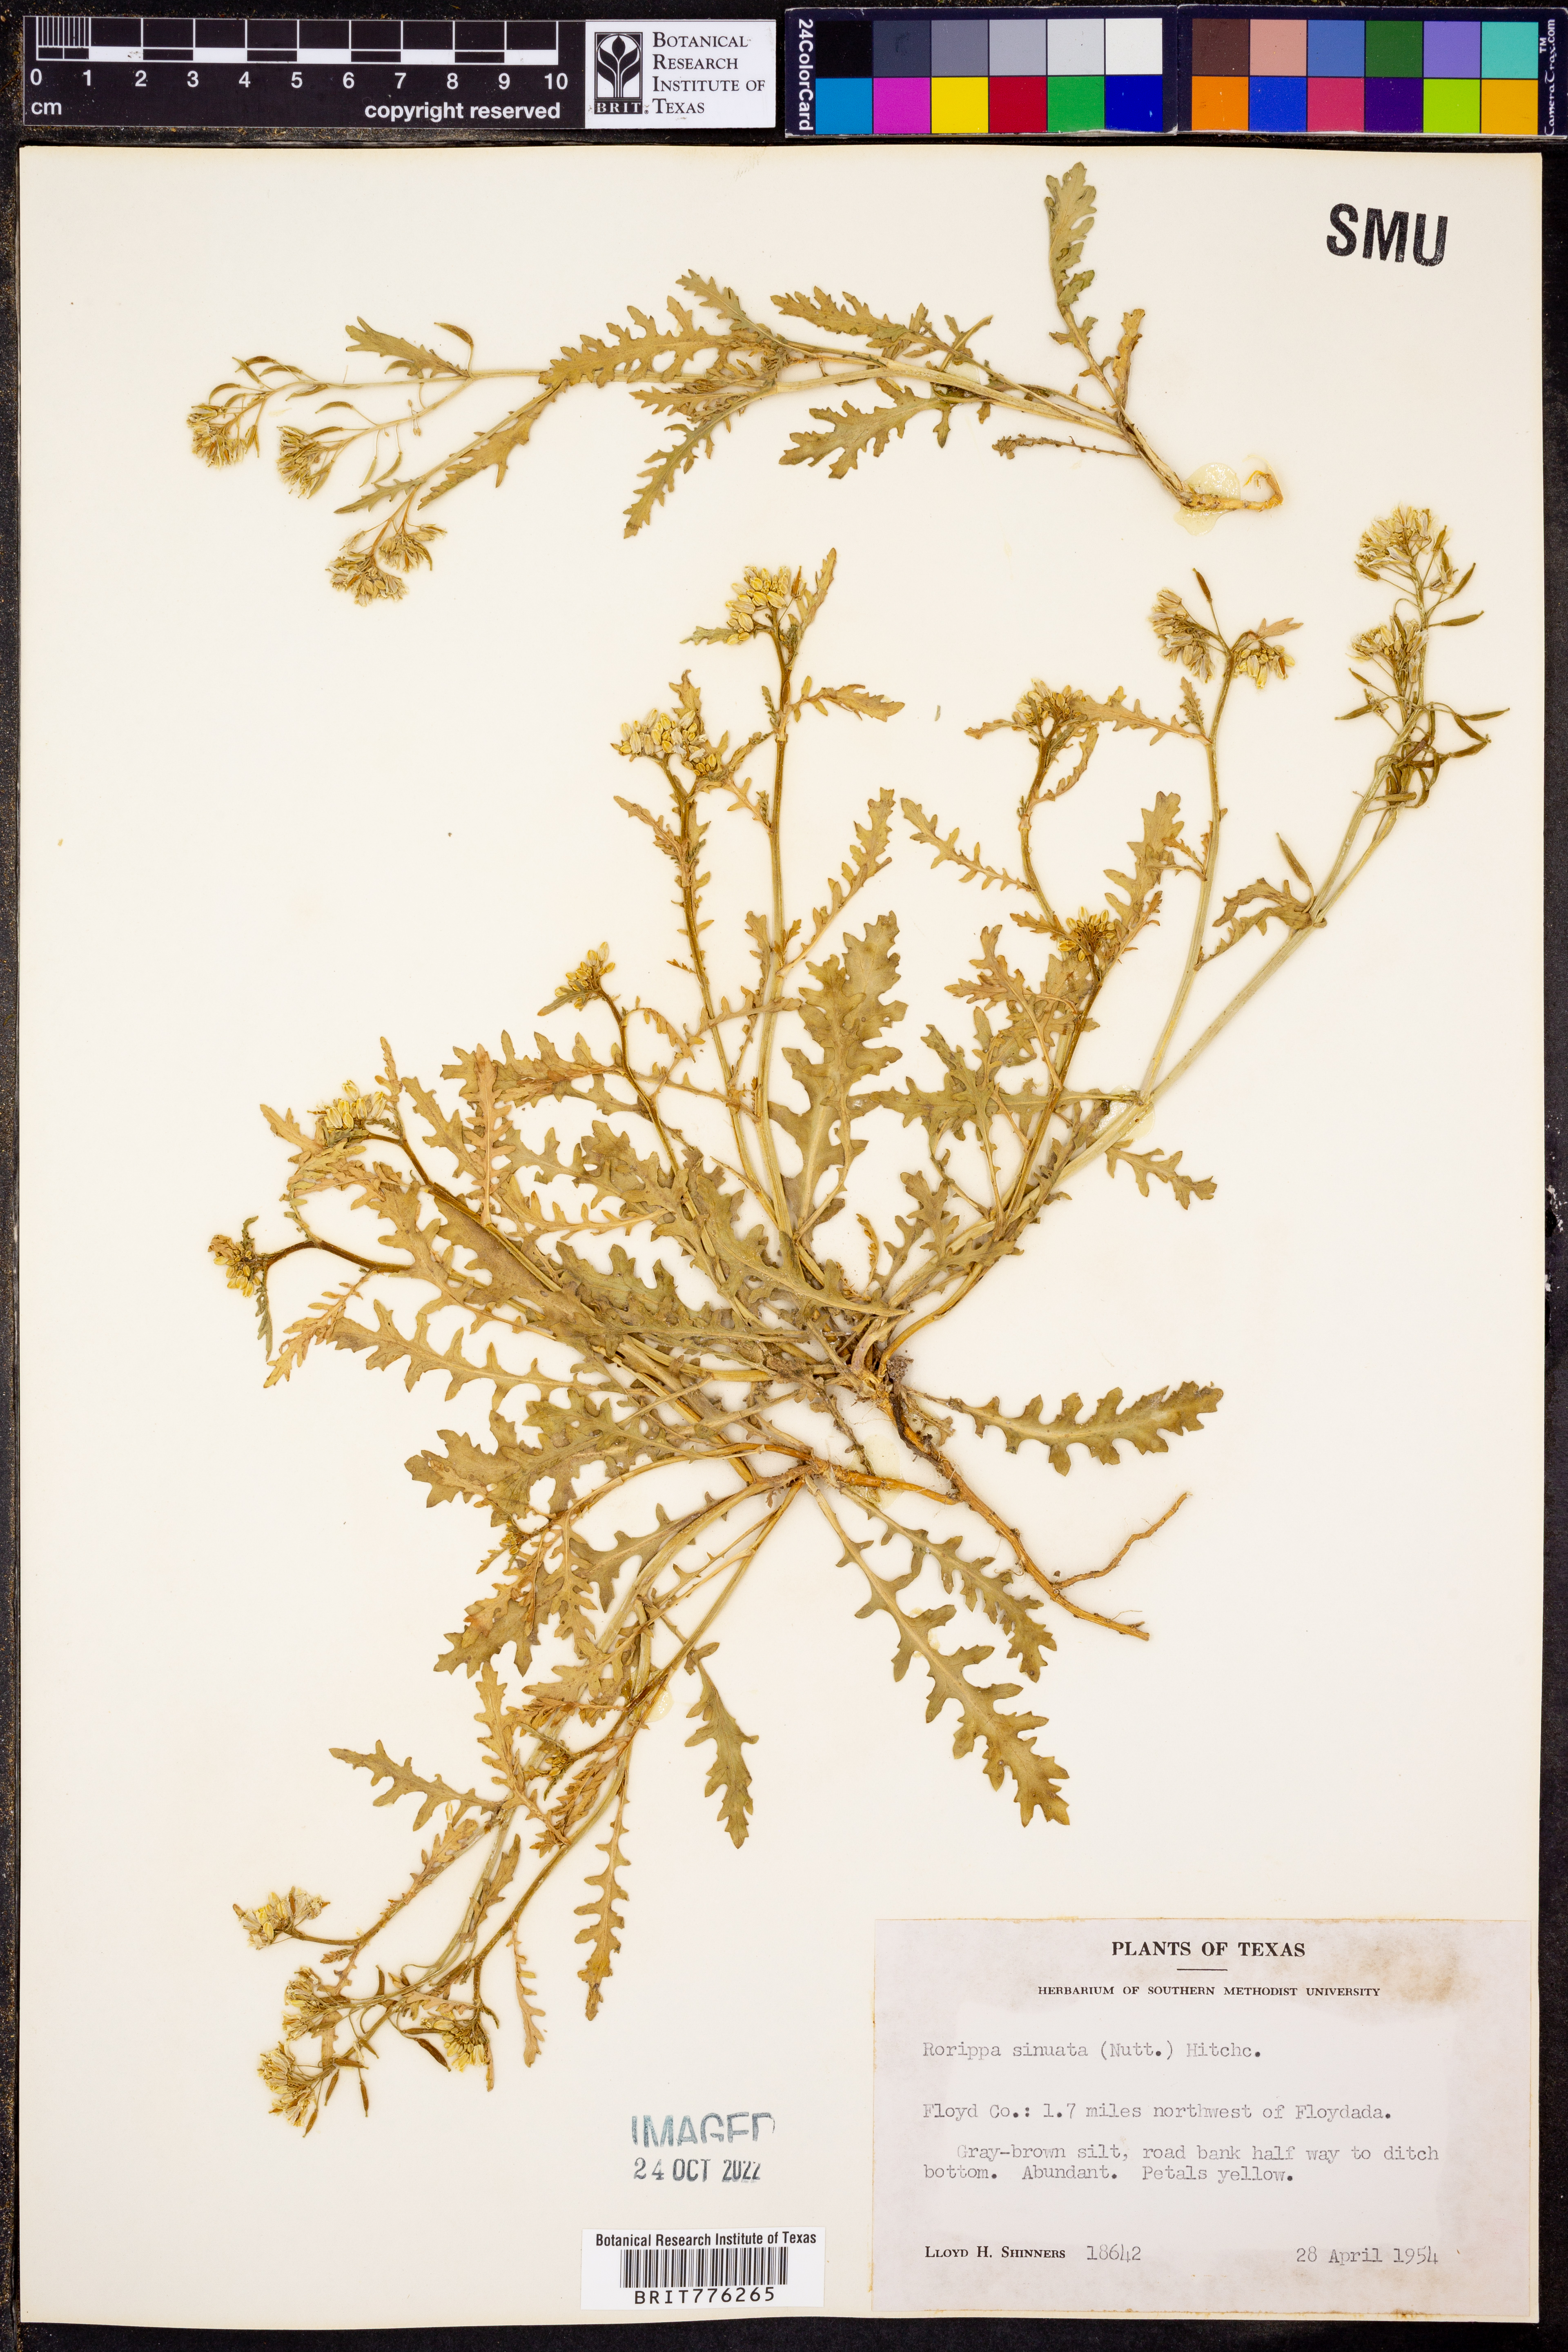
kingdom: Plantae
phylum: Tracheophyta
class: Magnoliopsida
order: Brassicales
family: Brassicaceae
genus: Rorippa
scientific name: Rorippa sinuata
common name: Spread yellow cress
